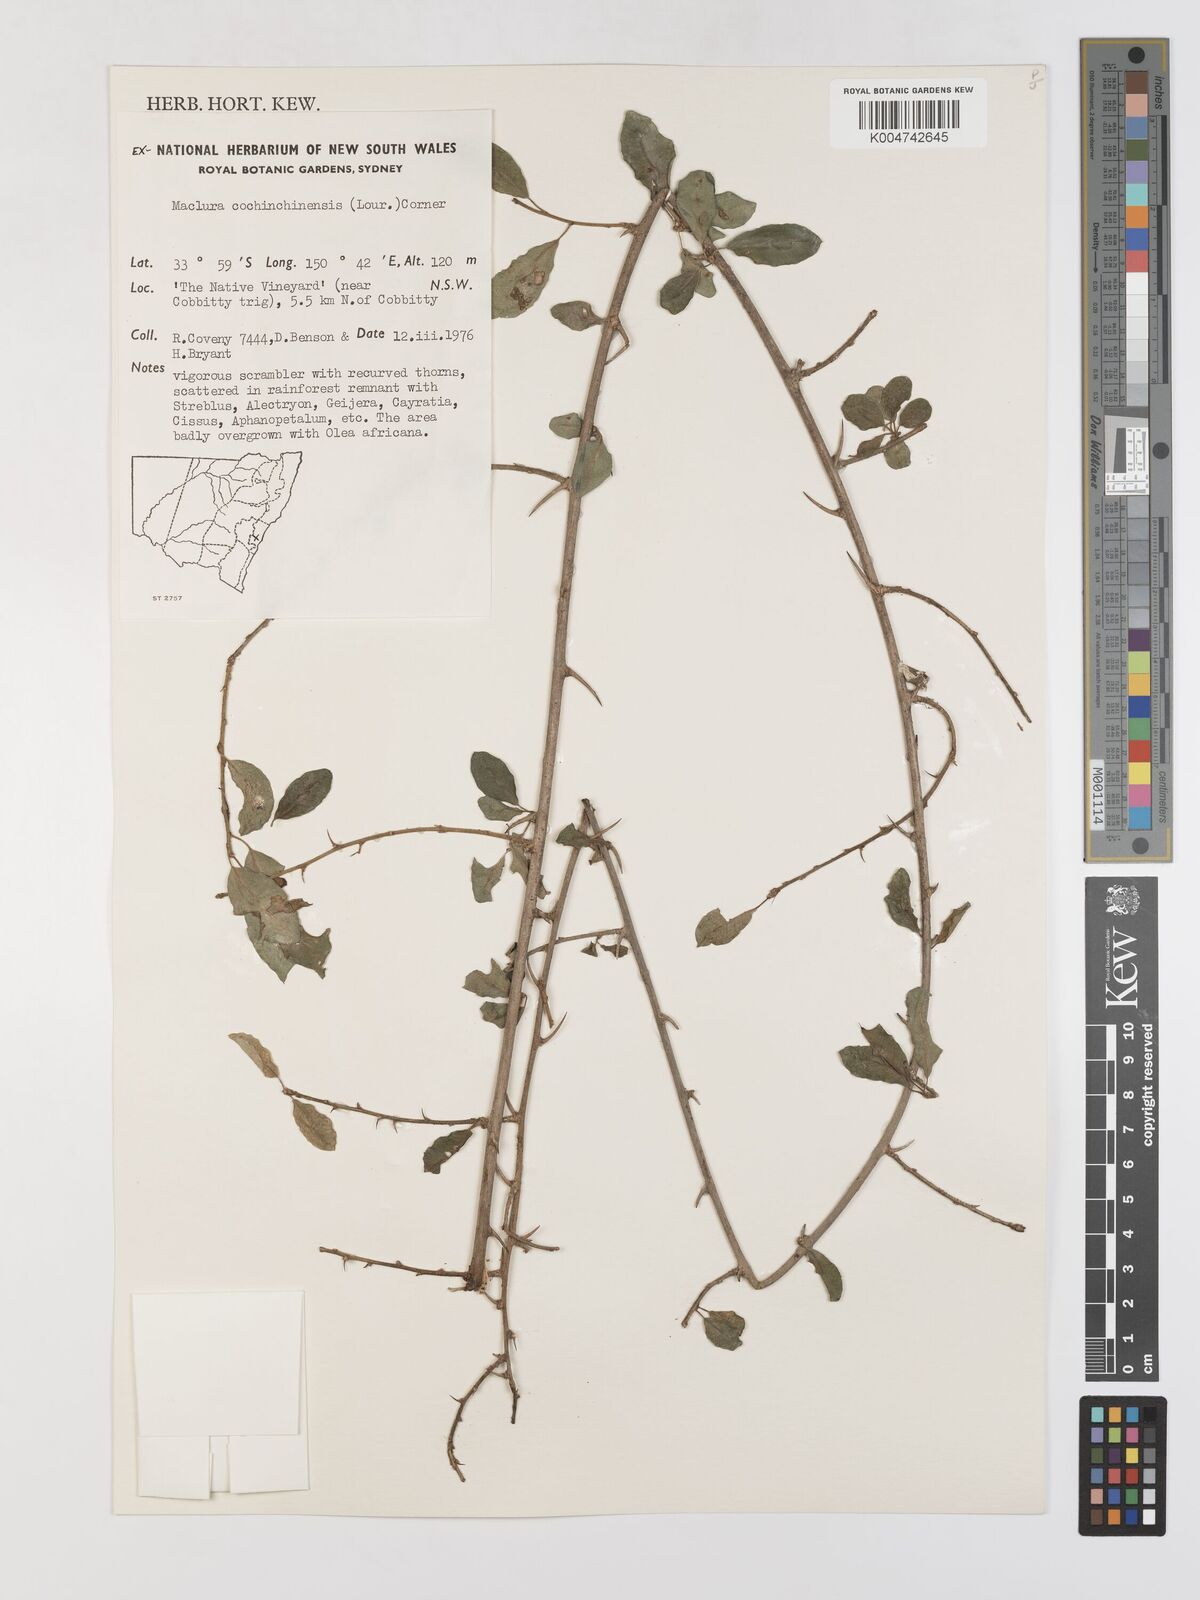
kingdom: Plantae
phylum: Tracheophyta
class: Magnoliopsida
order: Rosales
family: Moraceae
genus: Maclura
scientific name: Maclura cochinchinensis
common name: Cockspurthorn
